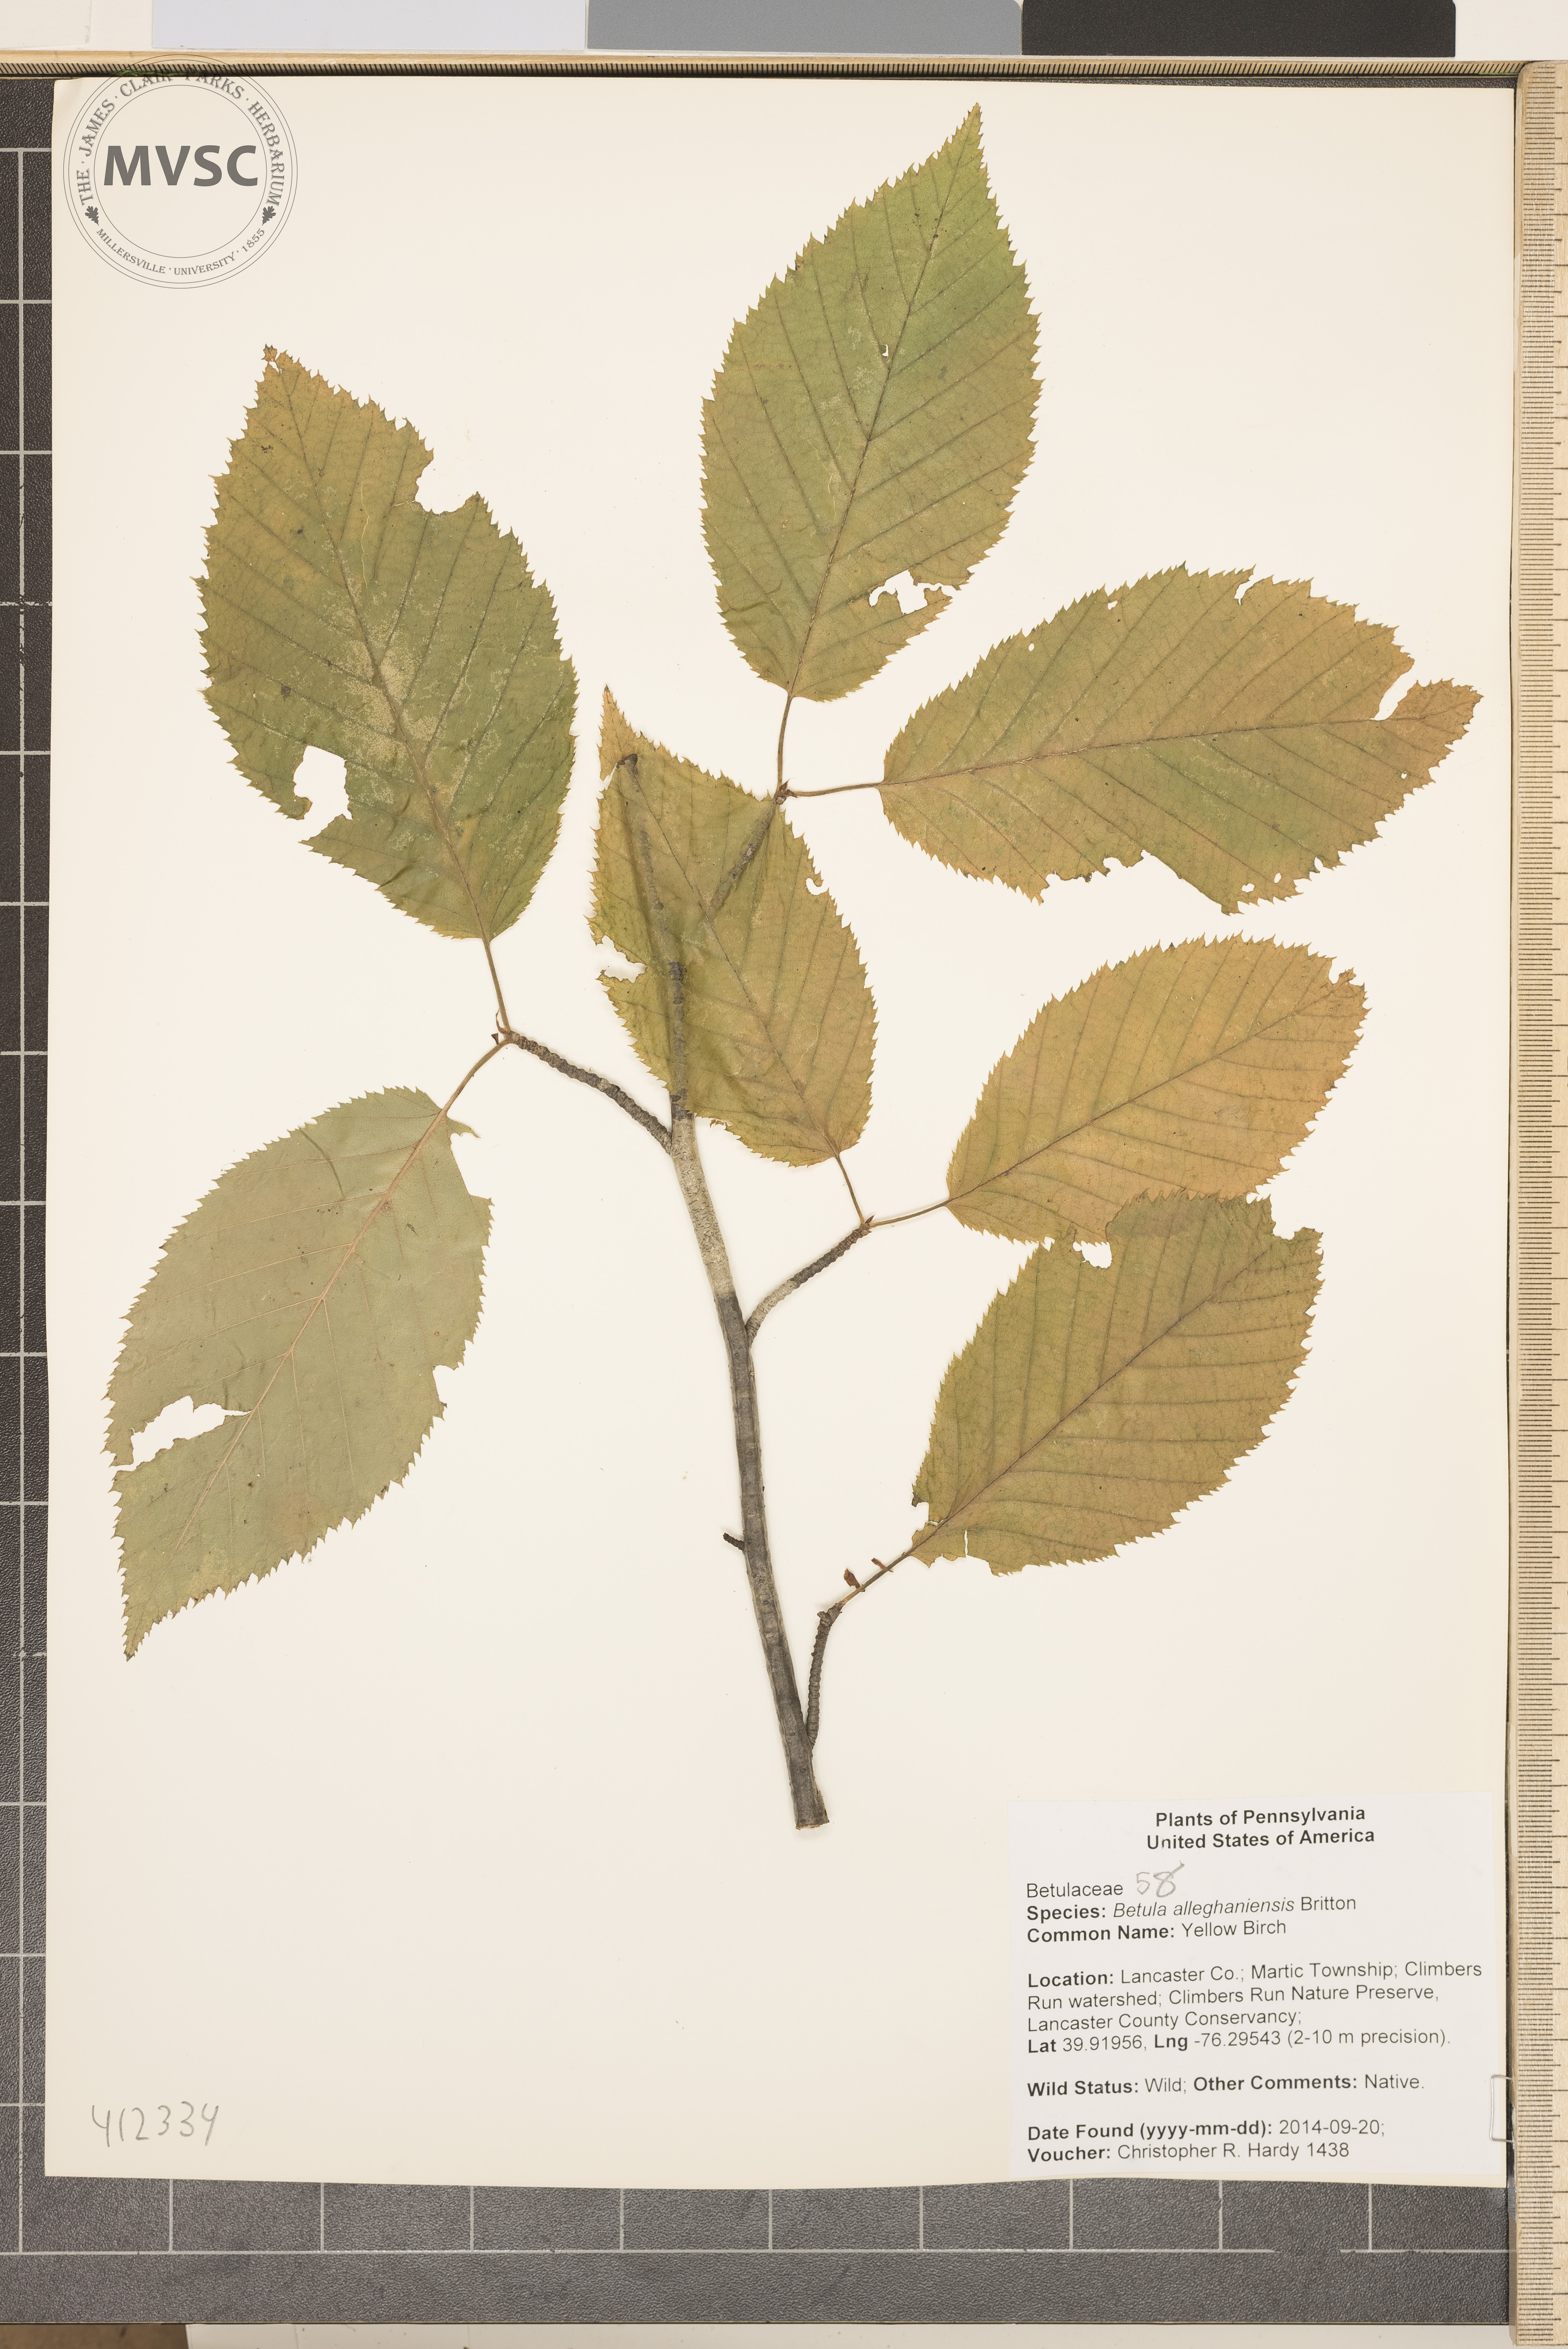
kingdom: Plantae
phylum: Tracheophyta
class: Magnoliopsida
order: Fagales
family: Betulaceae
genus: Betula
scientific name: Betula alleghaniensis
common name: yellow birch
